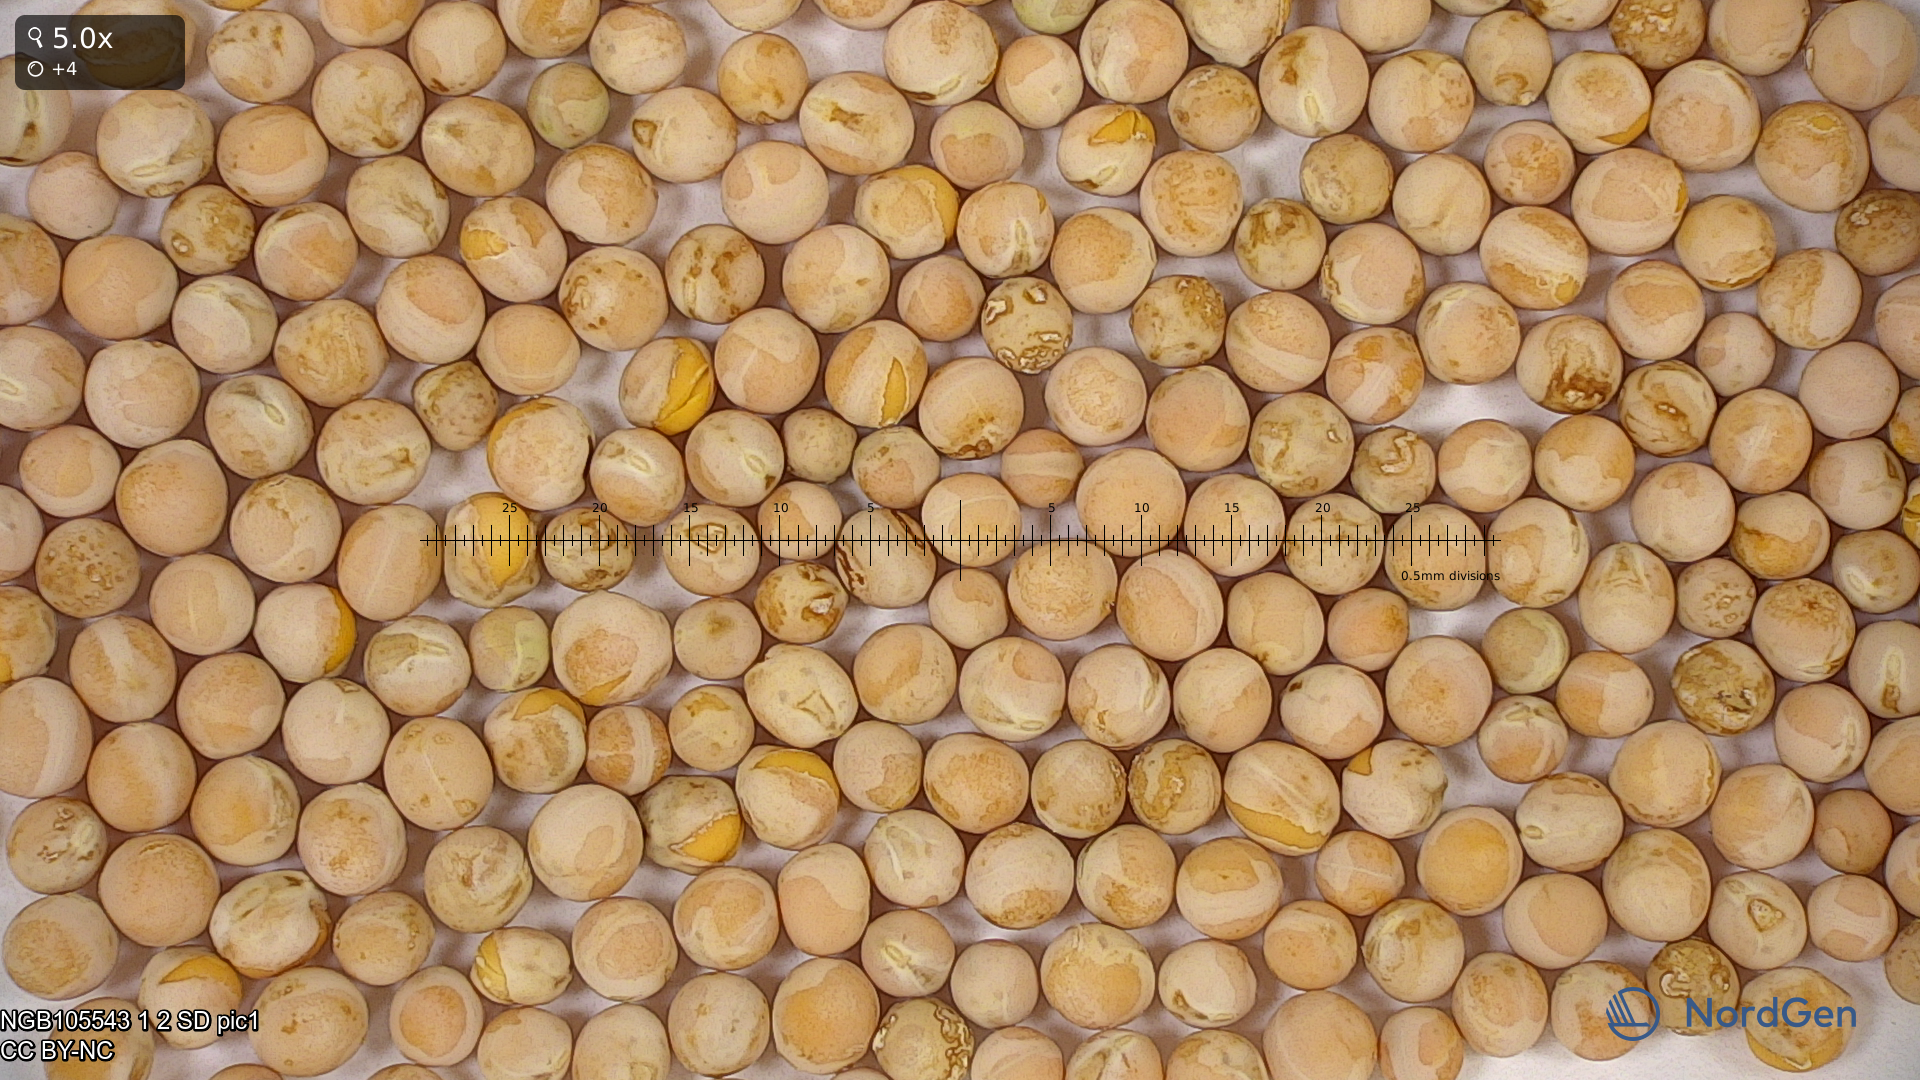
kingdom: Plantae
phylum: Tracheophyta
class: Magnoliopsida
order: Fabales
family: Fabaceae
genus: Lathyrus
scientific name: Lathyrus oleraceus
